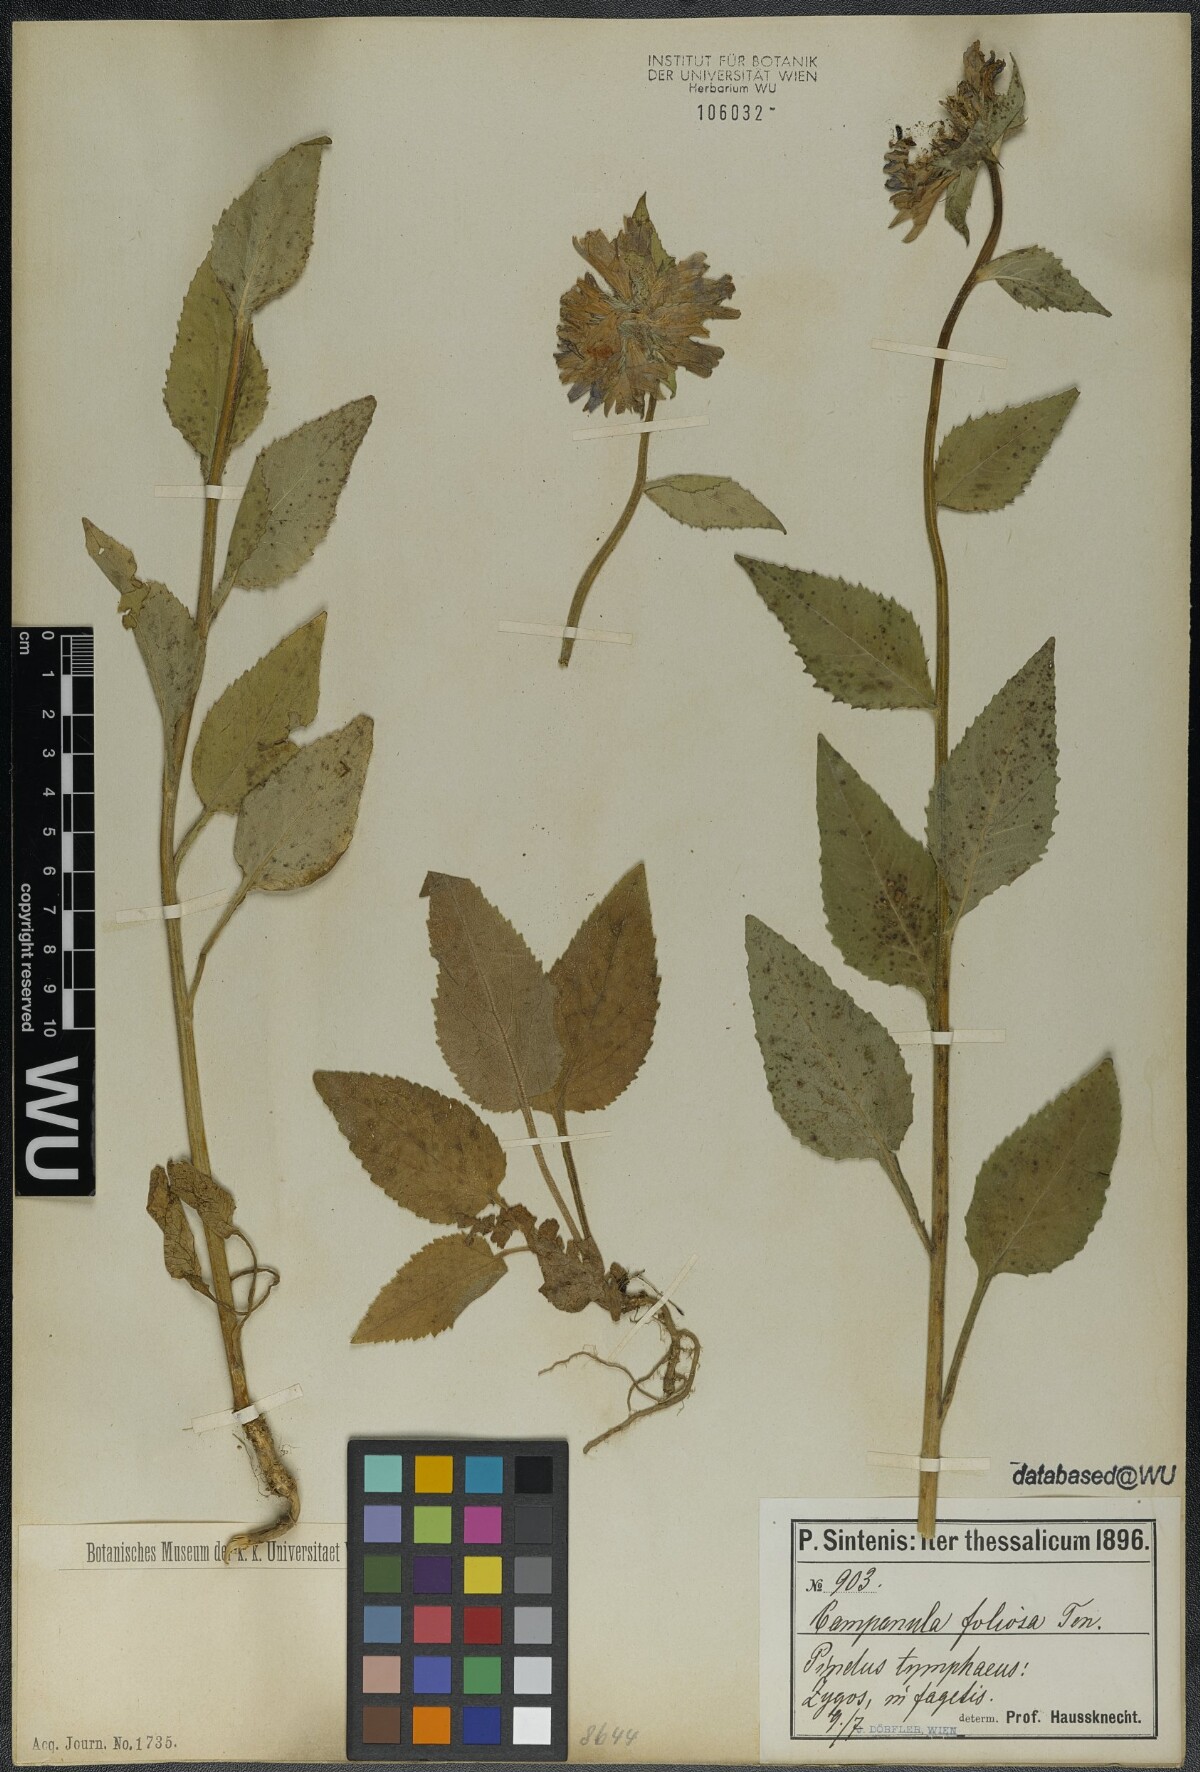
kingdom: Plantae
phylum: Tracheophyta
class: Magnoliopsida
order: Asterales
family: Campanulaceae
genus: Campanula
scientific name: Campanula foliosa
